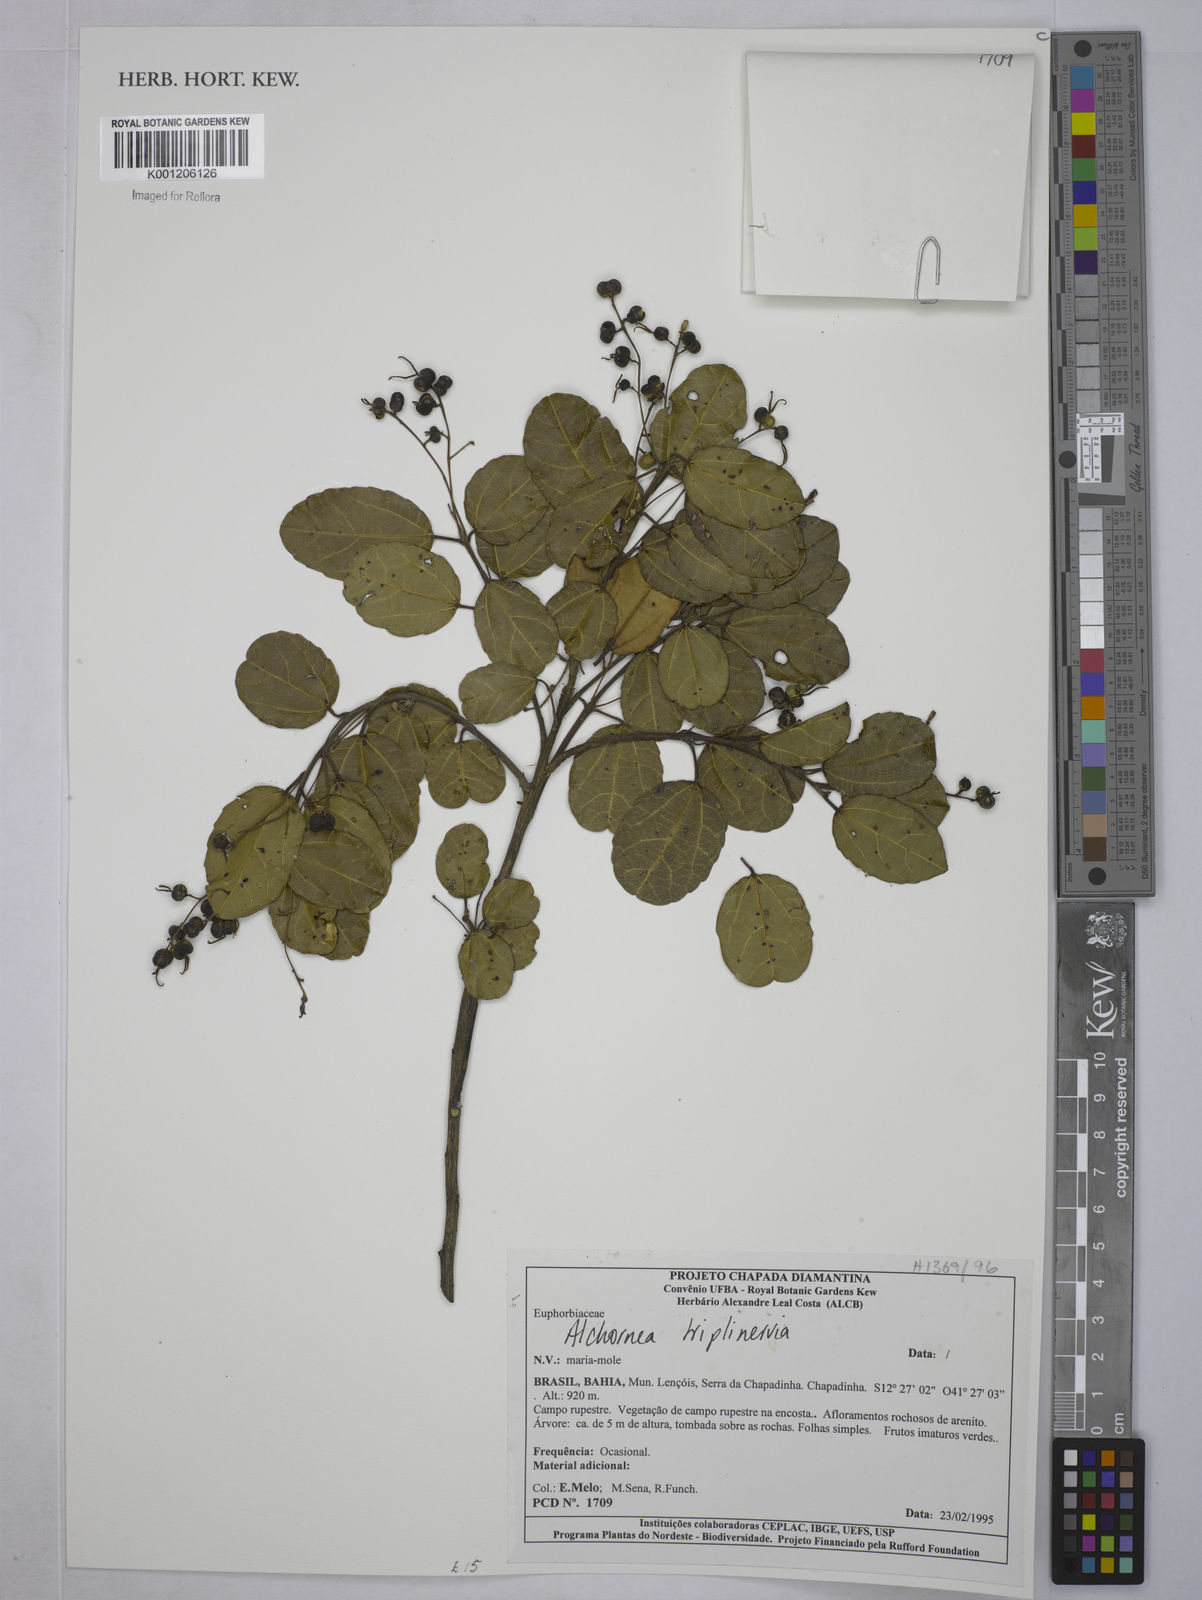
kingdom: Plantae
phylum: Tracheophyta
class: Magnoliopsida
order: Malpighiales
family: Euphorbiaceae
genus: Alchornea
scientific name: Alchornea
